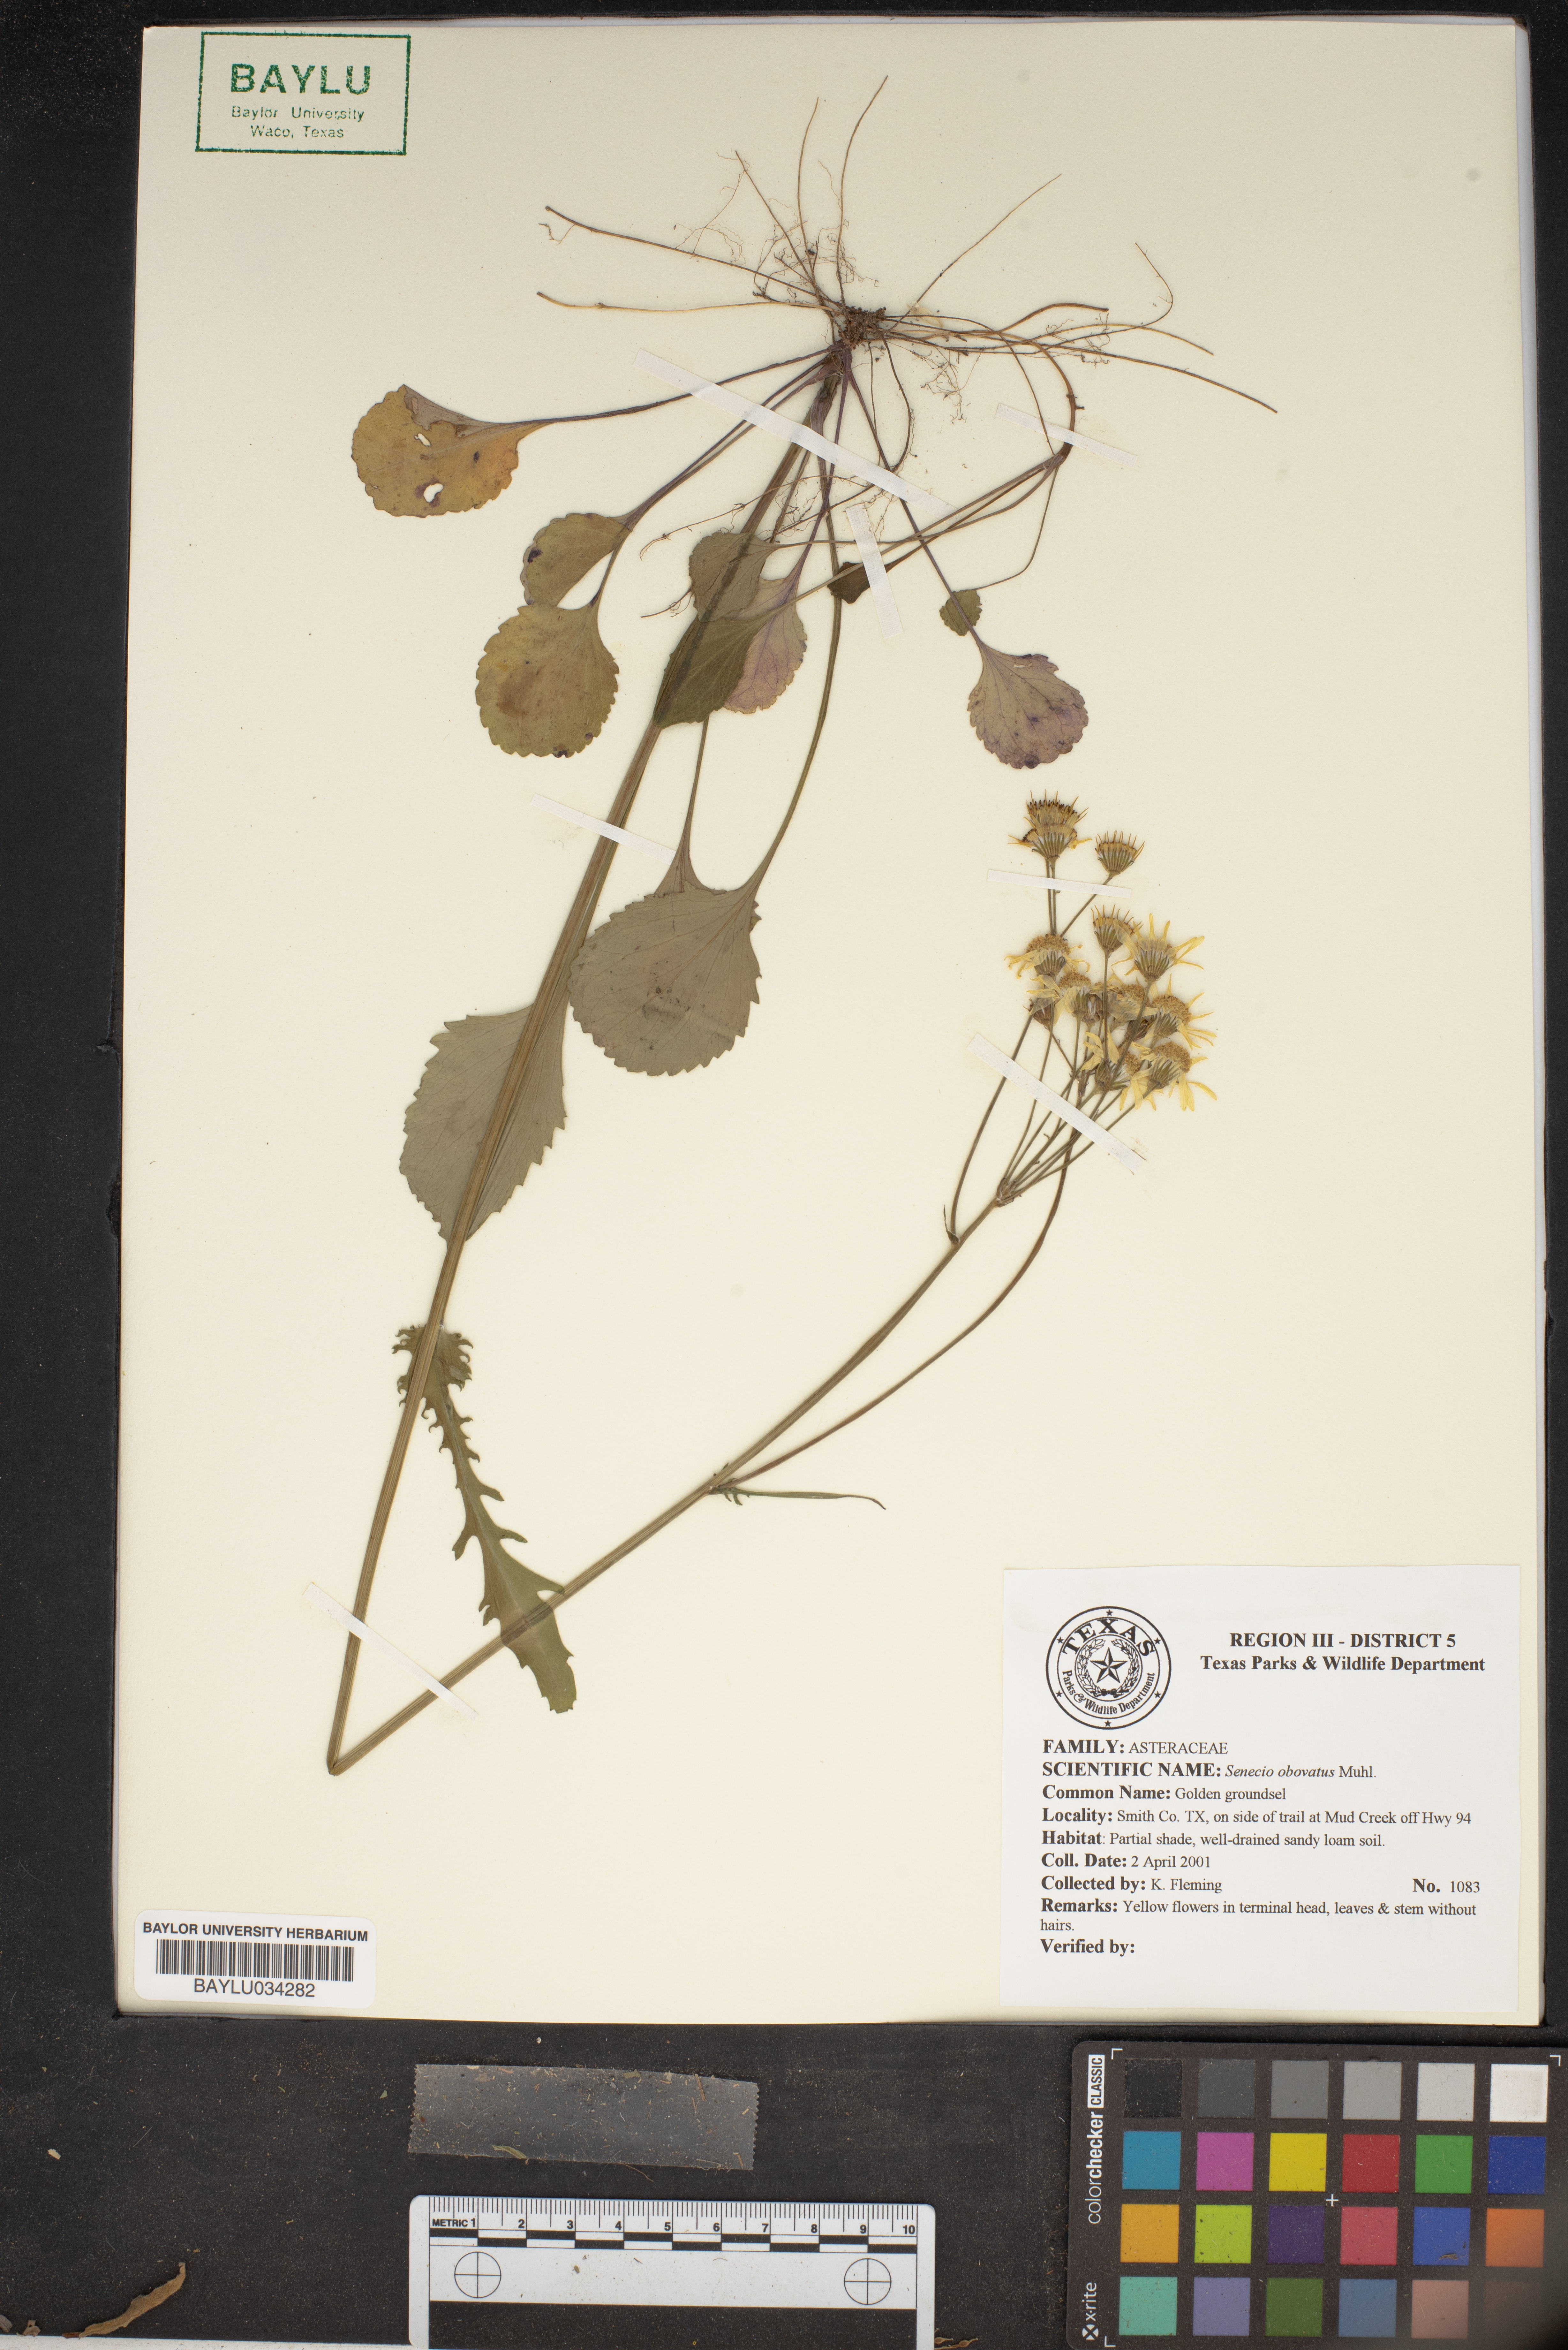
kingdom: Plantae
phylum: Tracheophyta
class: Magnoliopsida
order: Asterales
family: Asteraceae
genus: Senecio
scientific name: Senecio provincialis
